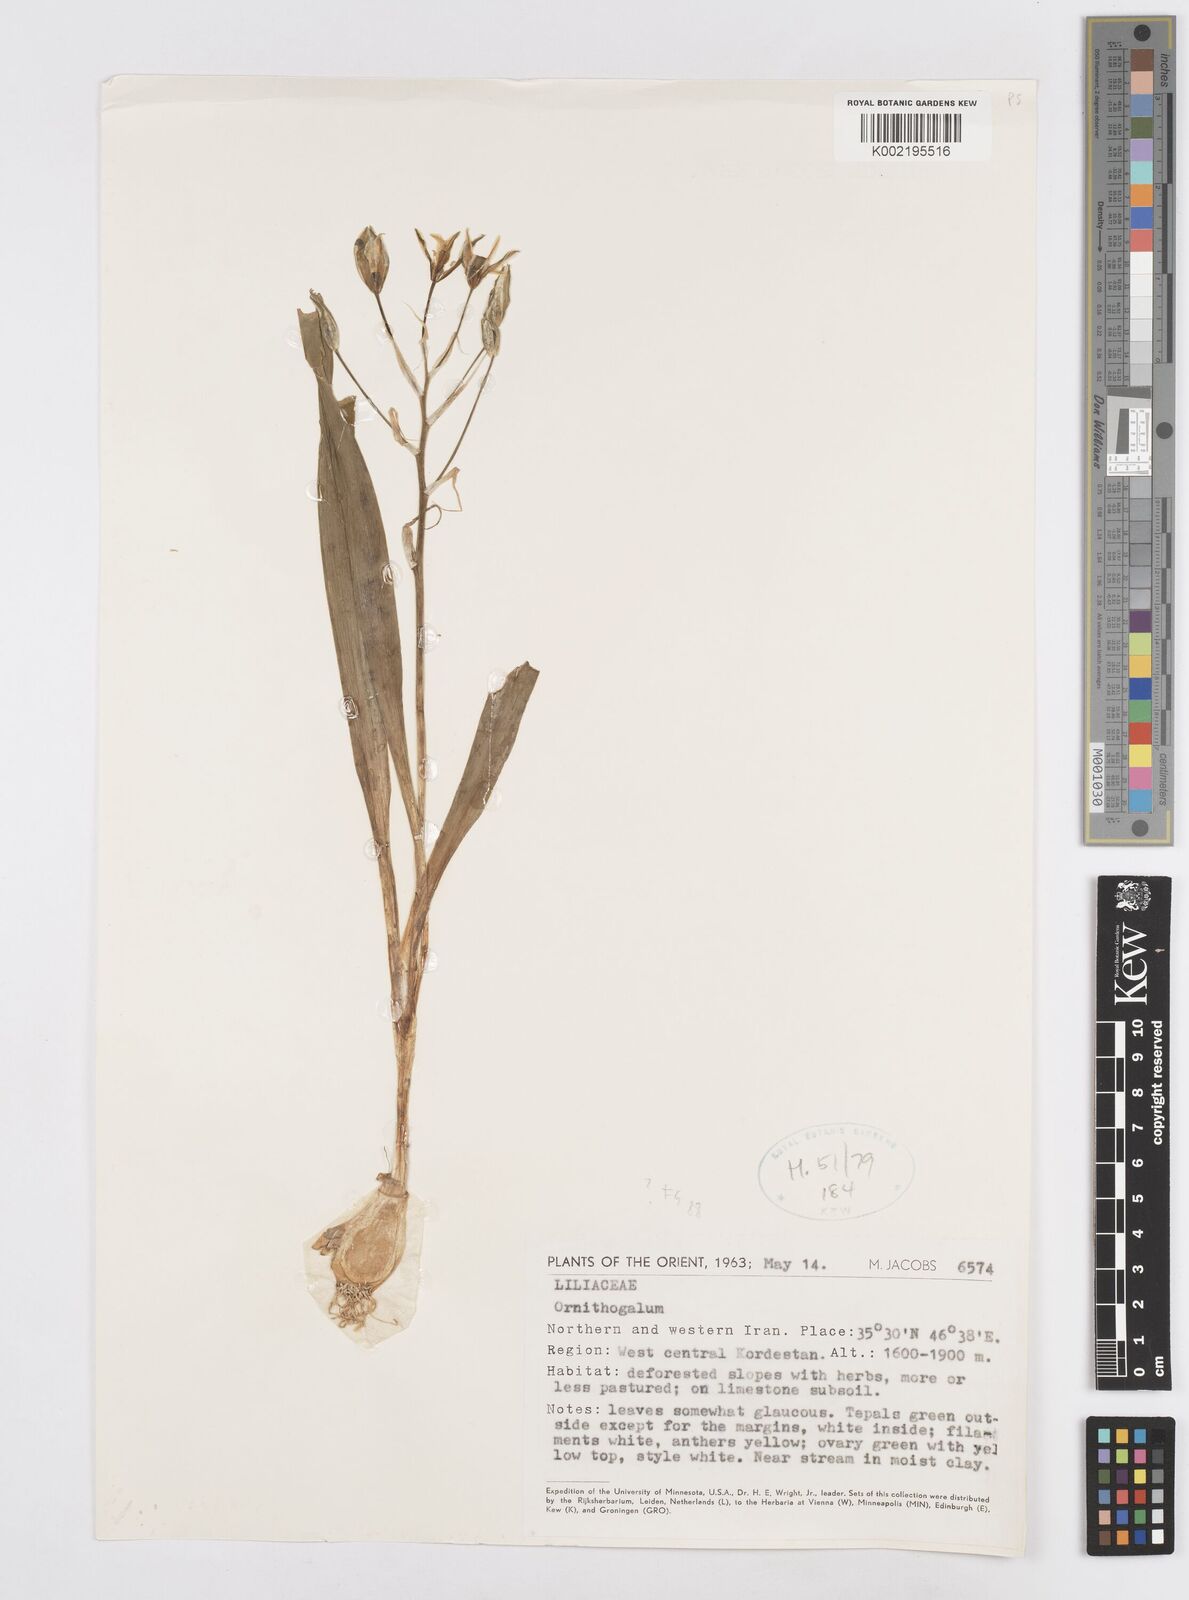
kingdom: Plantae
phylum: Tracheophyta
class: Liliopsida
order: Asparagales
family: Asparagaceae
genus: Ornithogalum
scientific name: Ornithogalum
